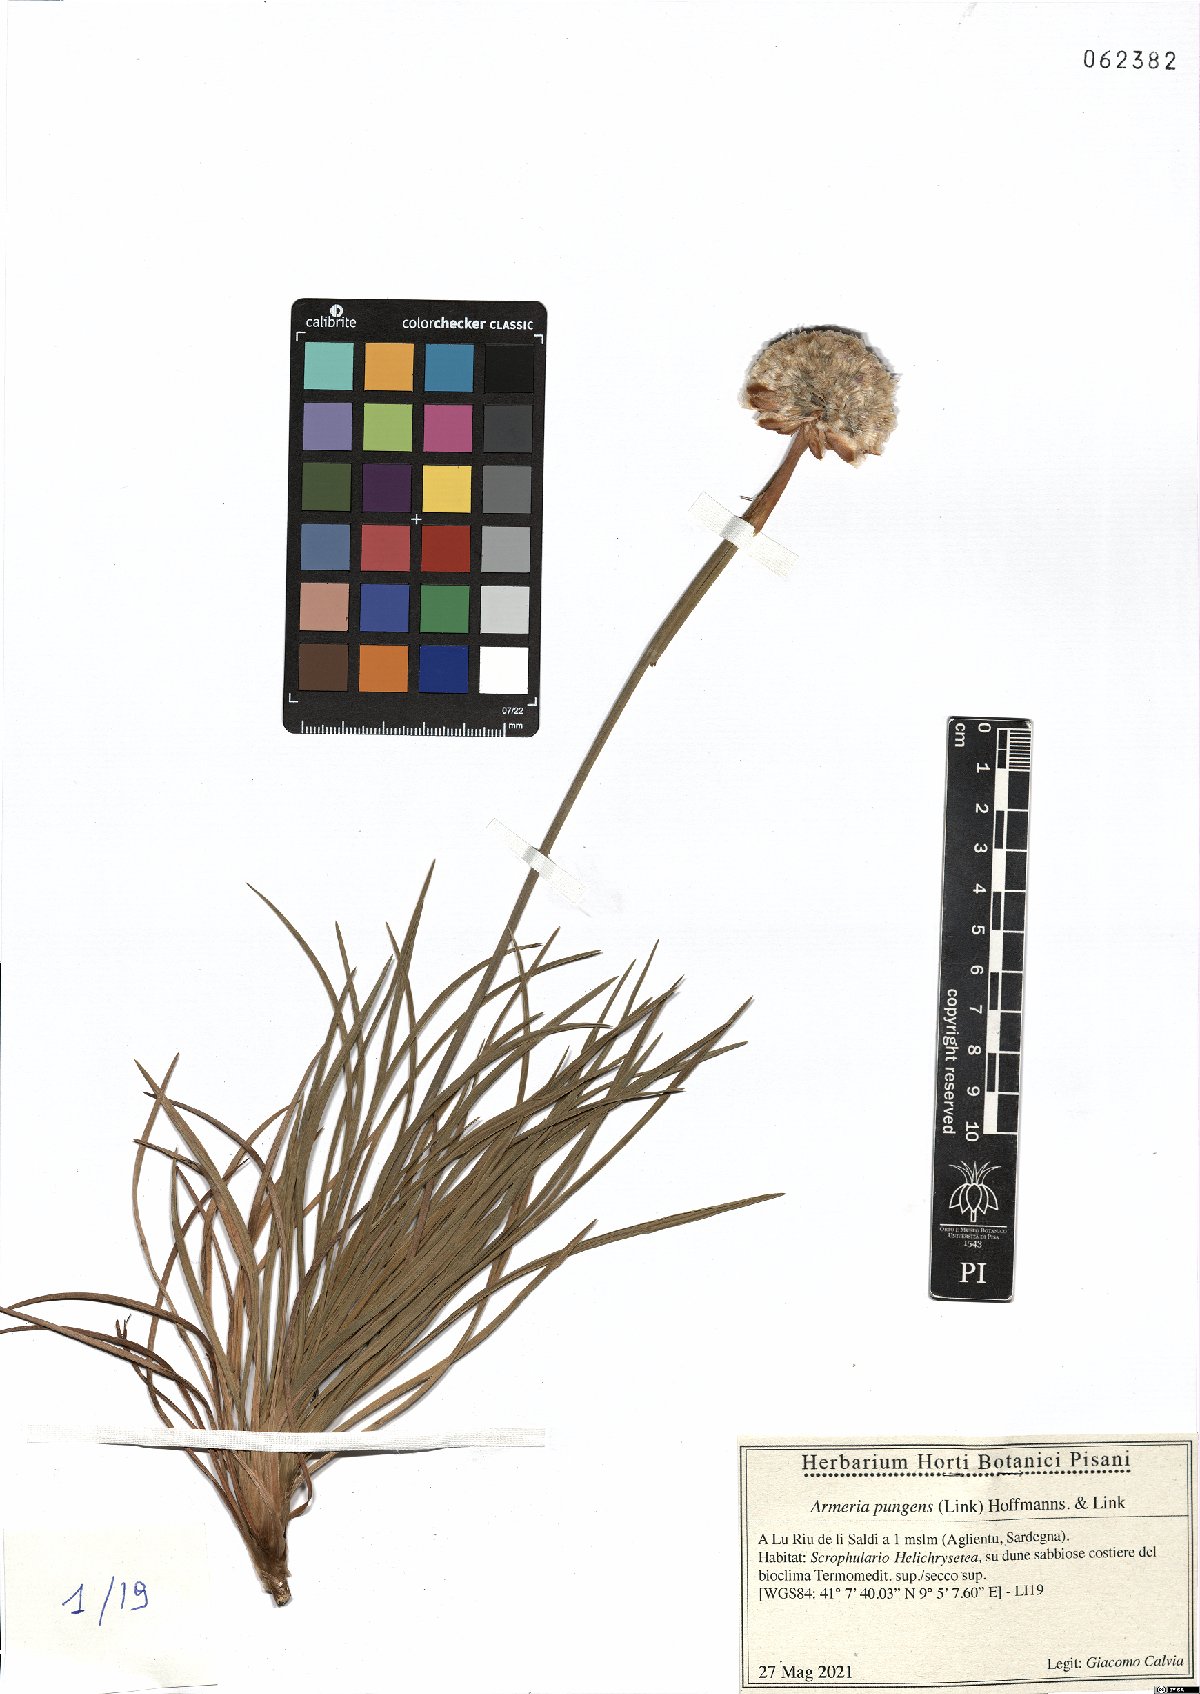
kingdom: Plantae
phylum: Tracheophyta
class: Magnoliopsida
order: Caryophyllales
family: Plumbaginaceae
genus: Armeria
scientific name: Armeria pungens
